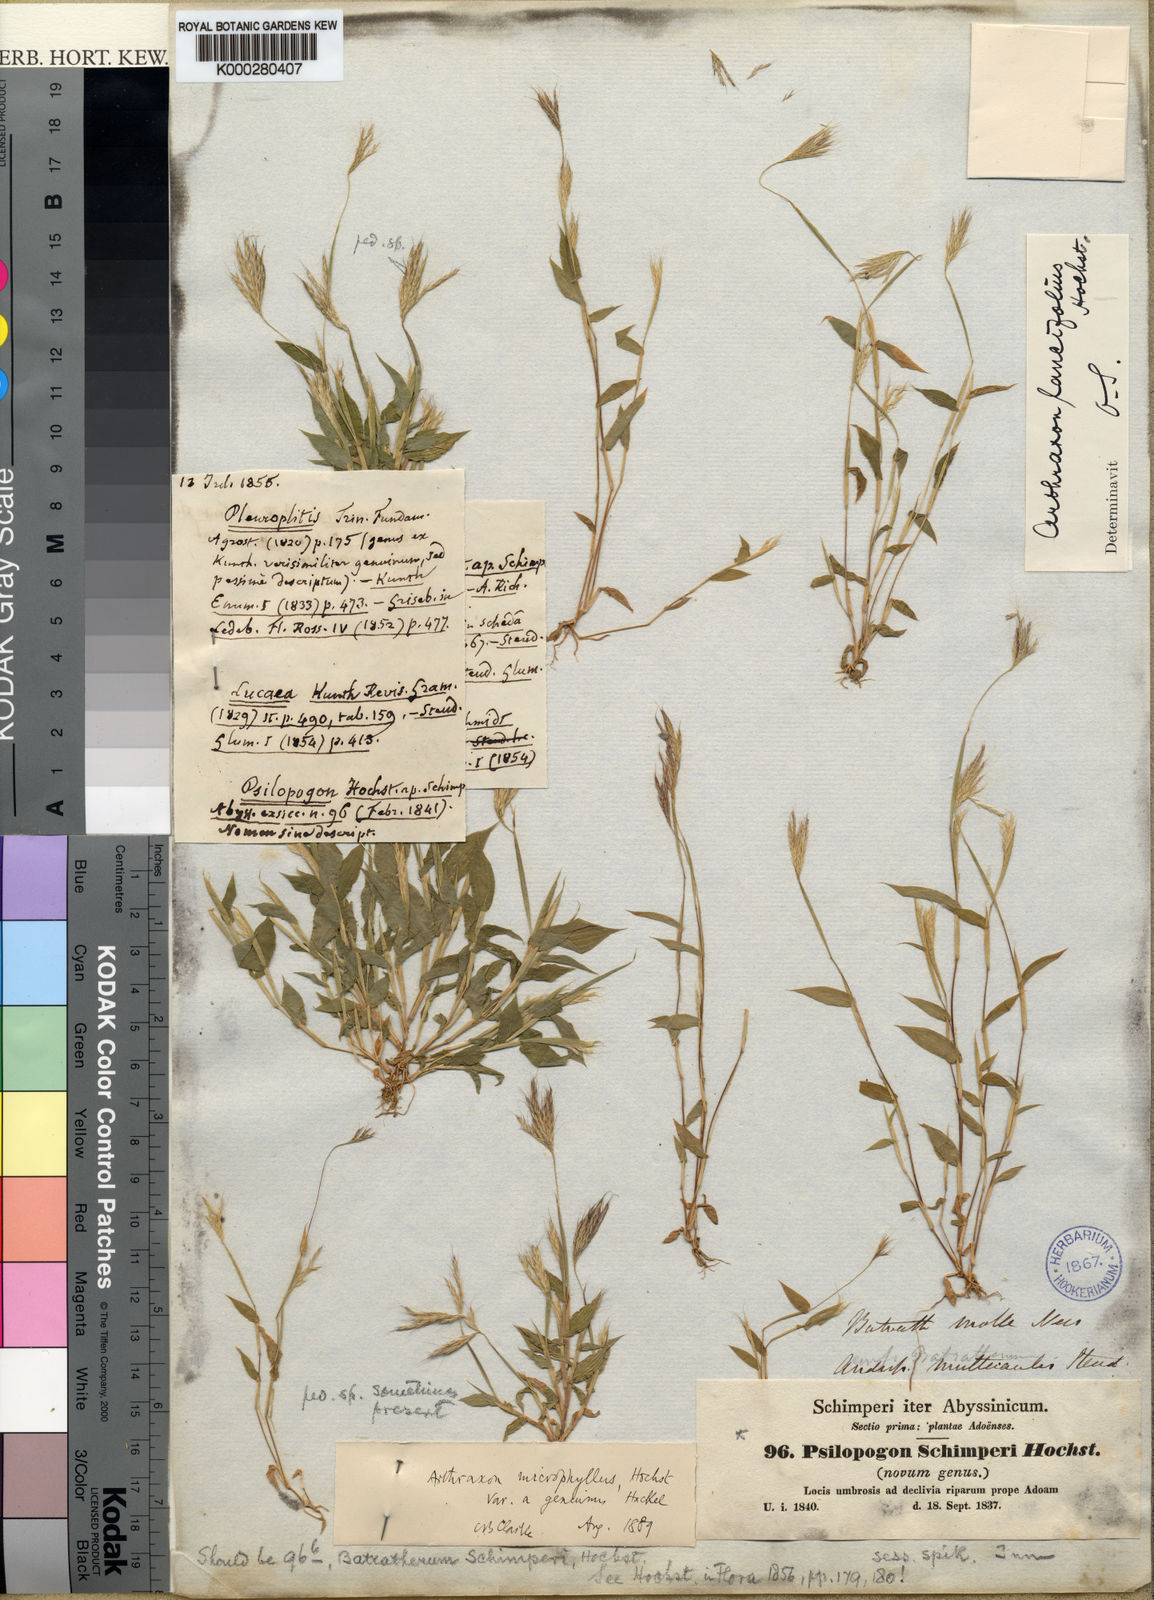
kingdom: Plantae
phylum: Tracheophyta
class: Liliopsida
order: Poales
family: Poaceae
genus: Arthraxon
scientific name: Arthraxon lancifolius
